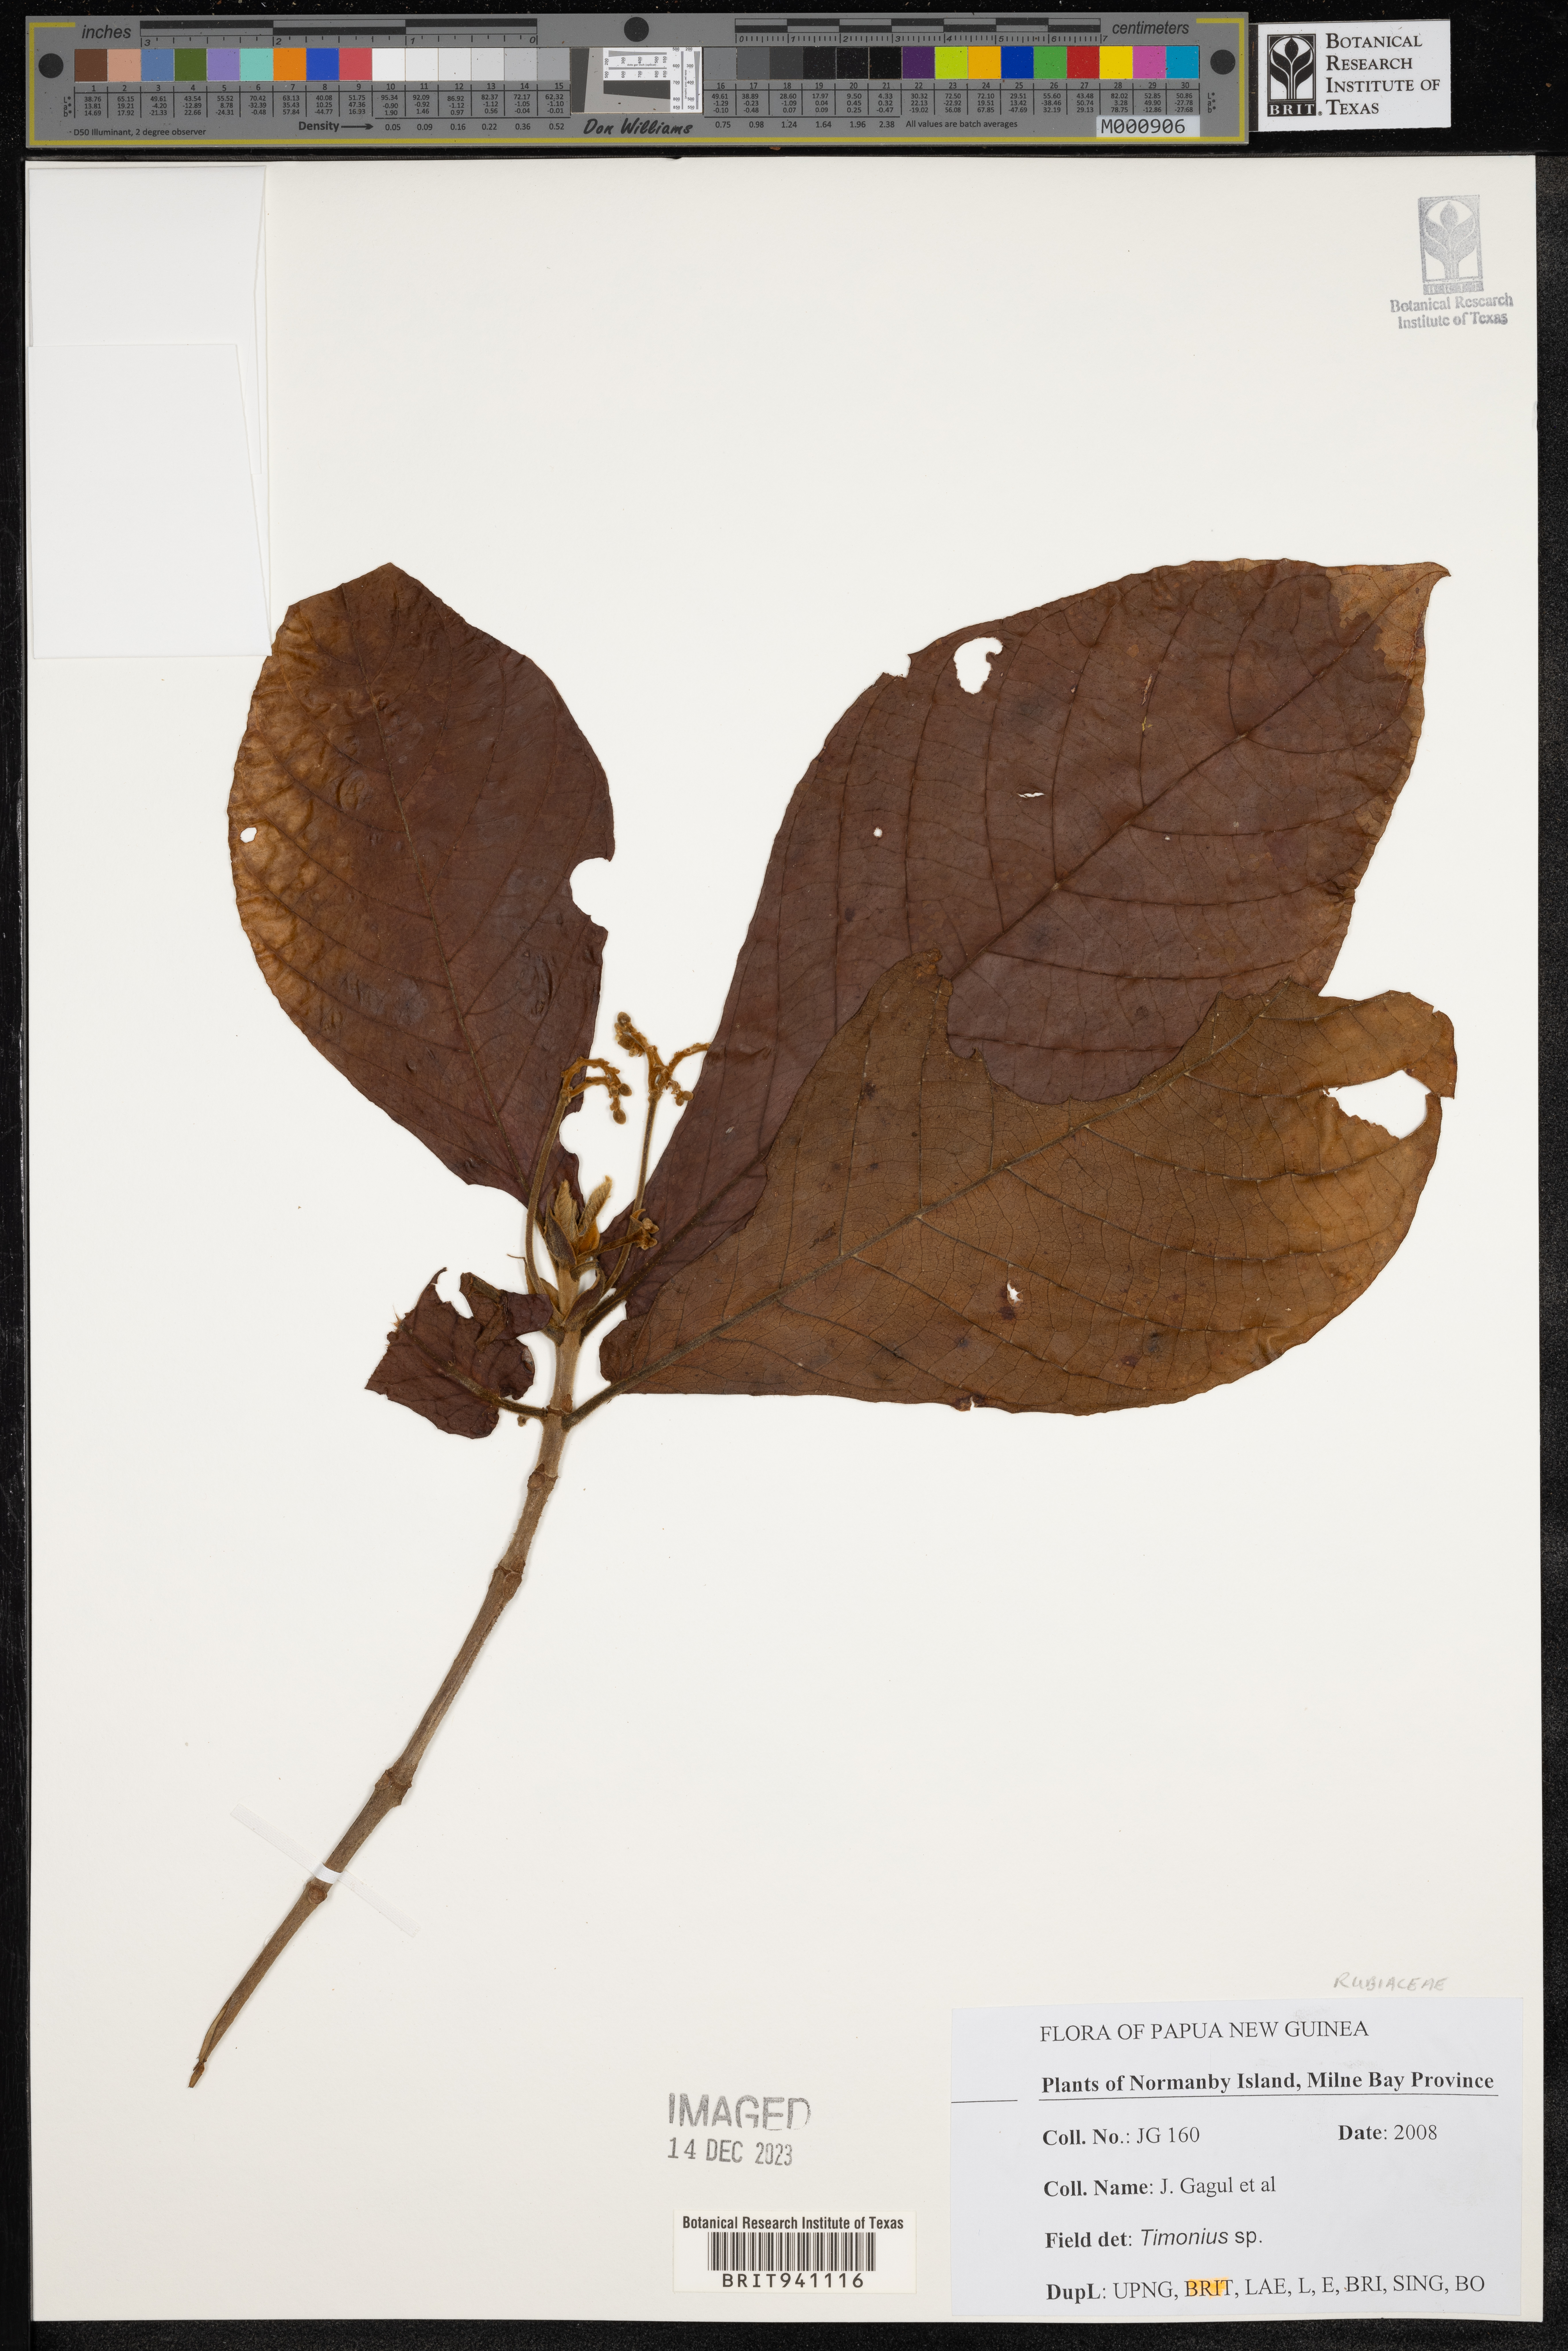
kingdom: Plantae
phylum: Tracheophyta
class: Magnoliopsida
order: Gentianales
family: Rubiaceae
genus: Timonius
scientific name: Timonius
